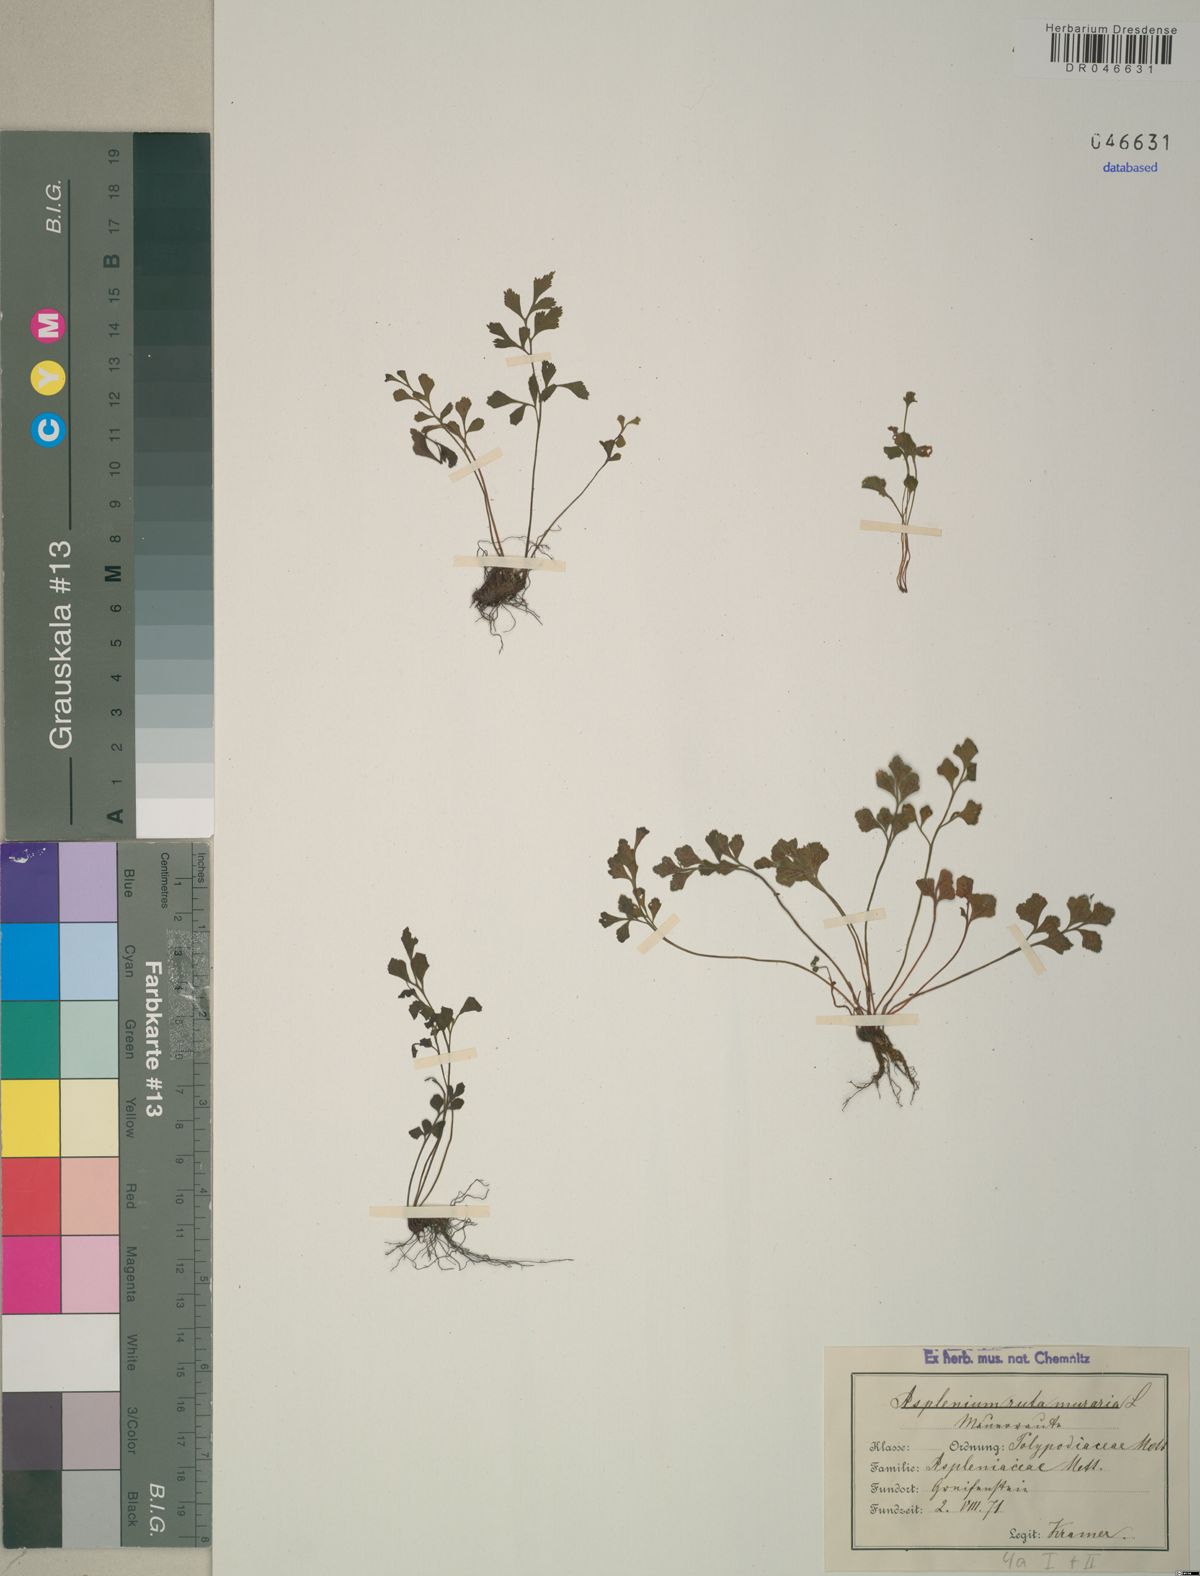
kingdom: Plantae
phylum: Tracheophyta
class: Polypodiopsida
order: Polypodiales
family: Aspleniaceae
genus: Asplenium
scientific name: Asplenium ruta-muraria
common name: Wall-rue
